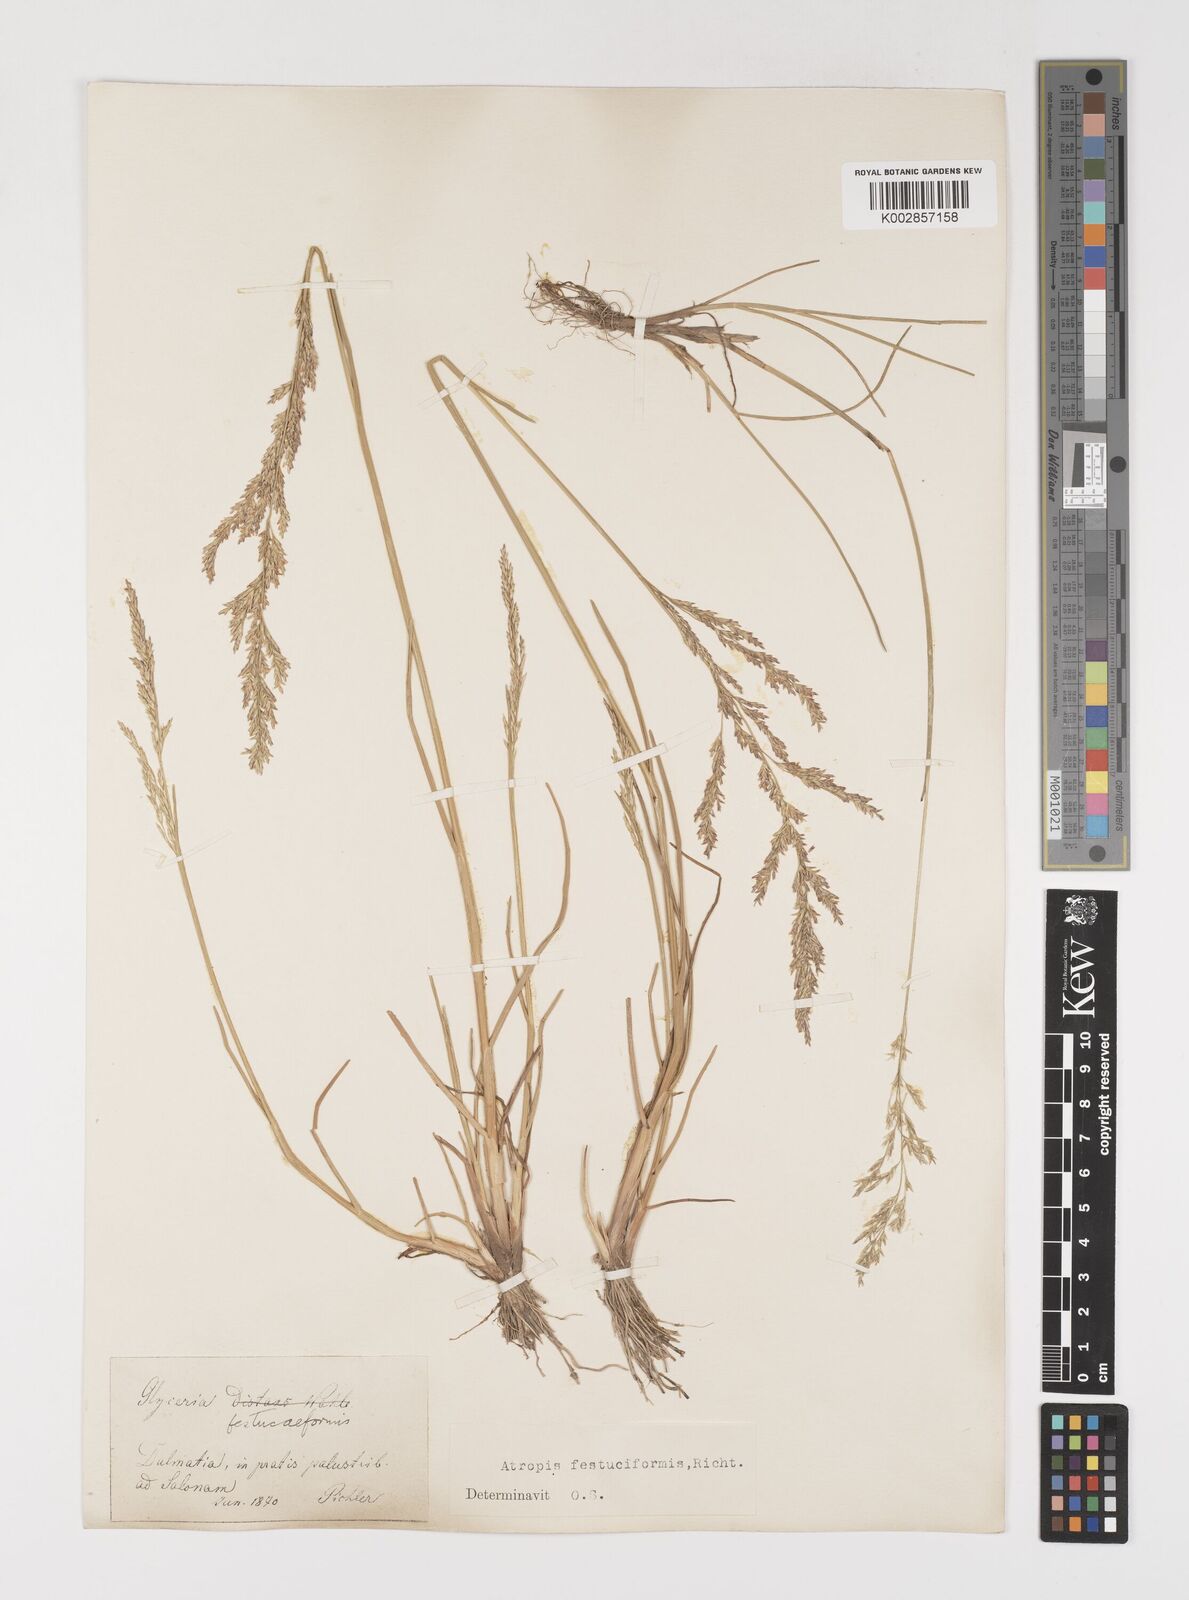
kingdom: Plantae
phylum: Tracheophyta
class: Liliopsida
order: Poales
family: Poaceae
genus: Puccinellia
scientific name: Puccinellia festuciformis
